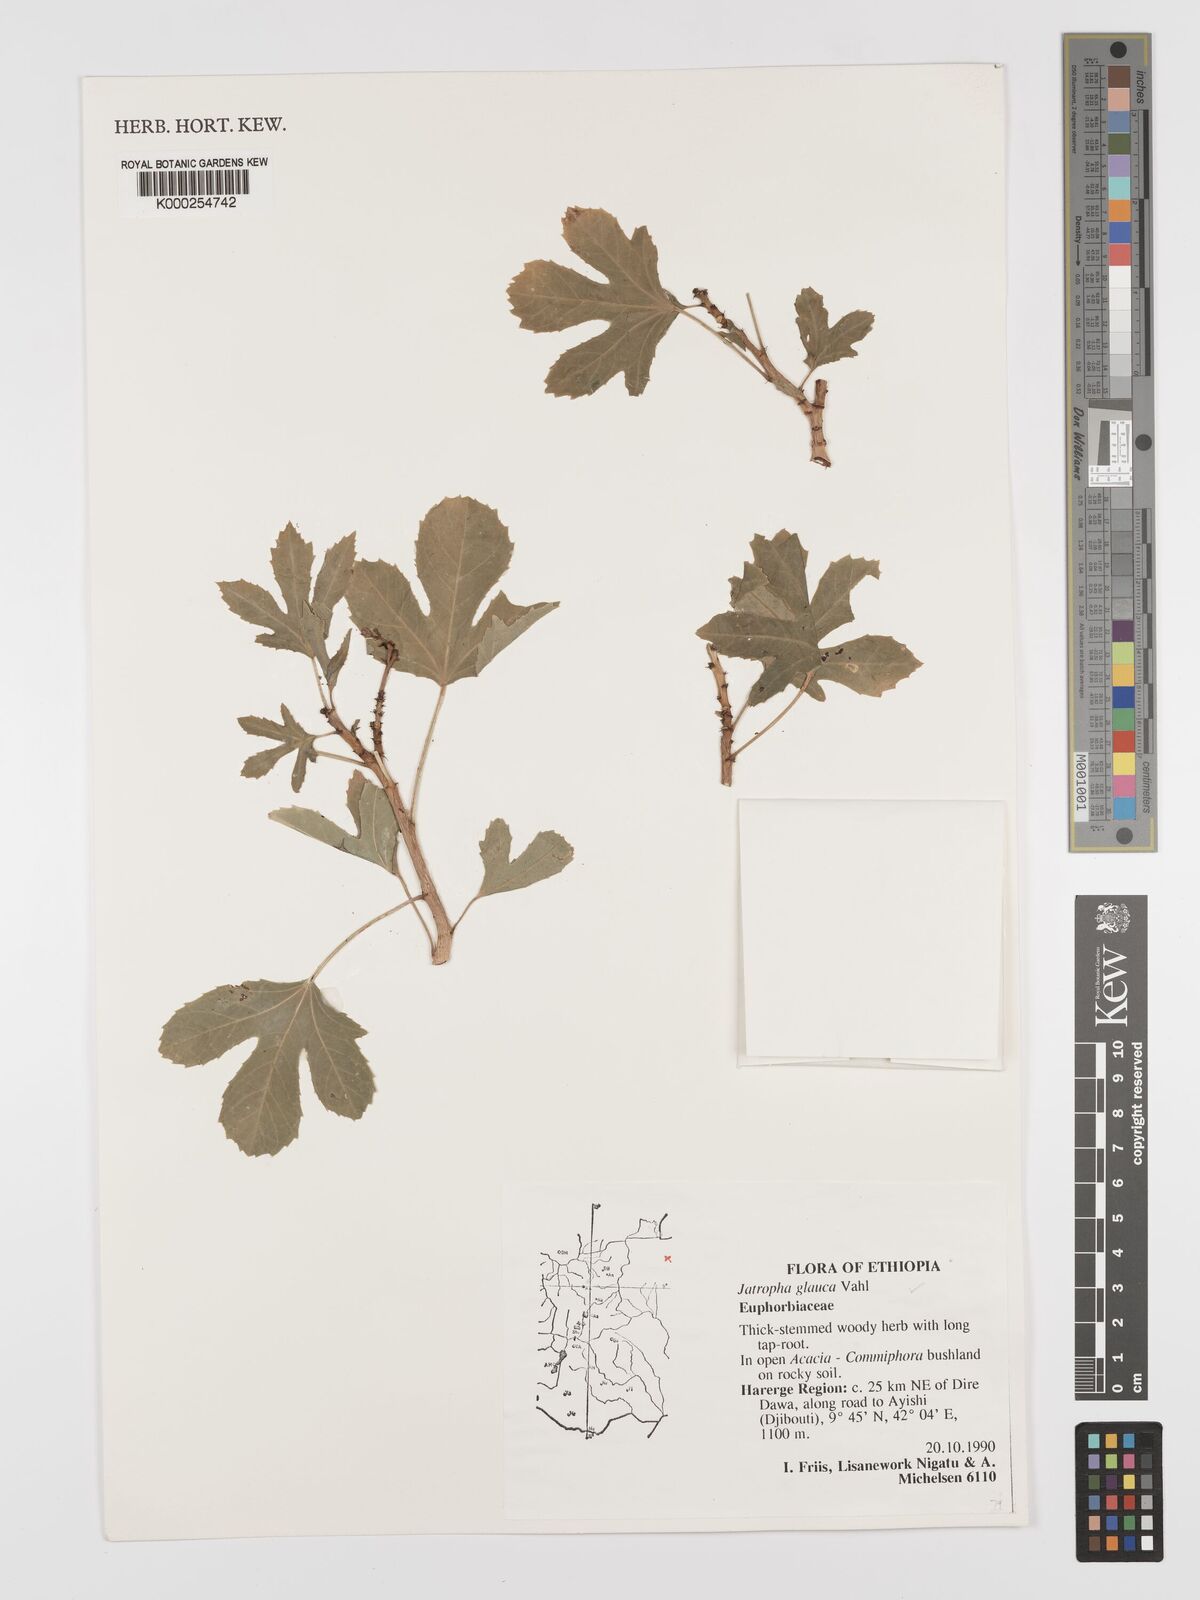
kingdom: Plantae
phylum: Tracheophyta
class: Magnoliopsida
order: Malpighiales
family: Euphorbiaceae
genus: Jatropha
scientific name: Jatropha glauca
